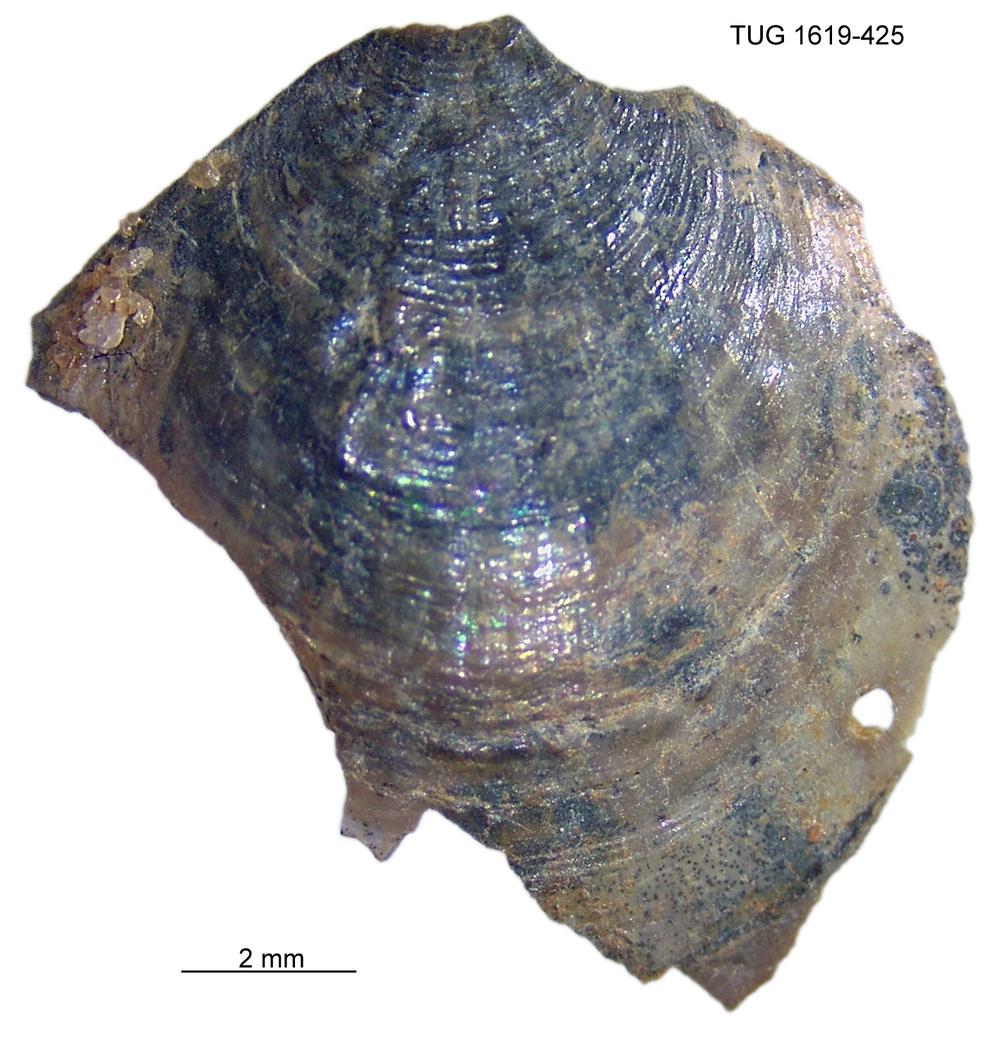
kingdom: Animalia
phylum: Porifera
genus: Ungula
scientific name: Ungula
